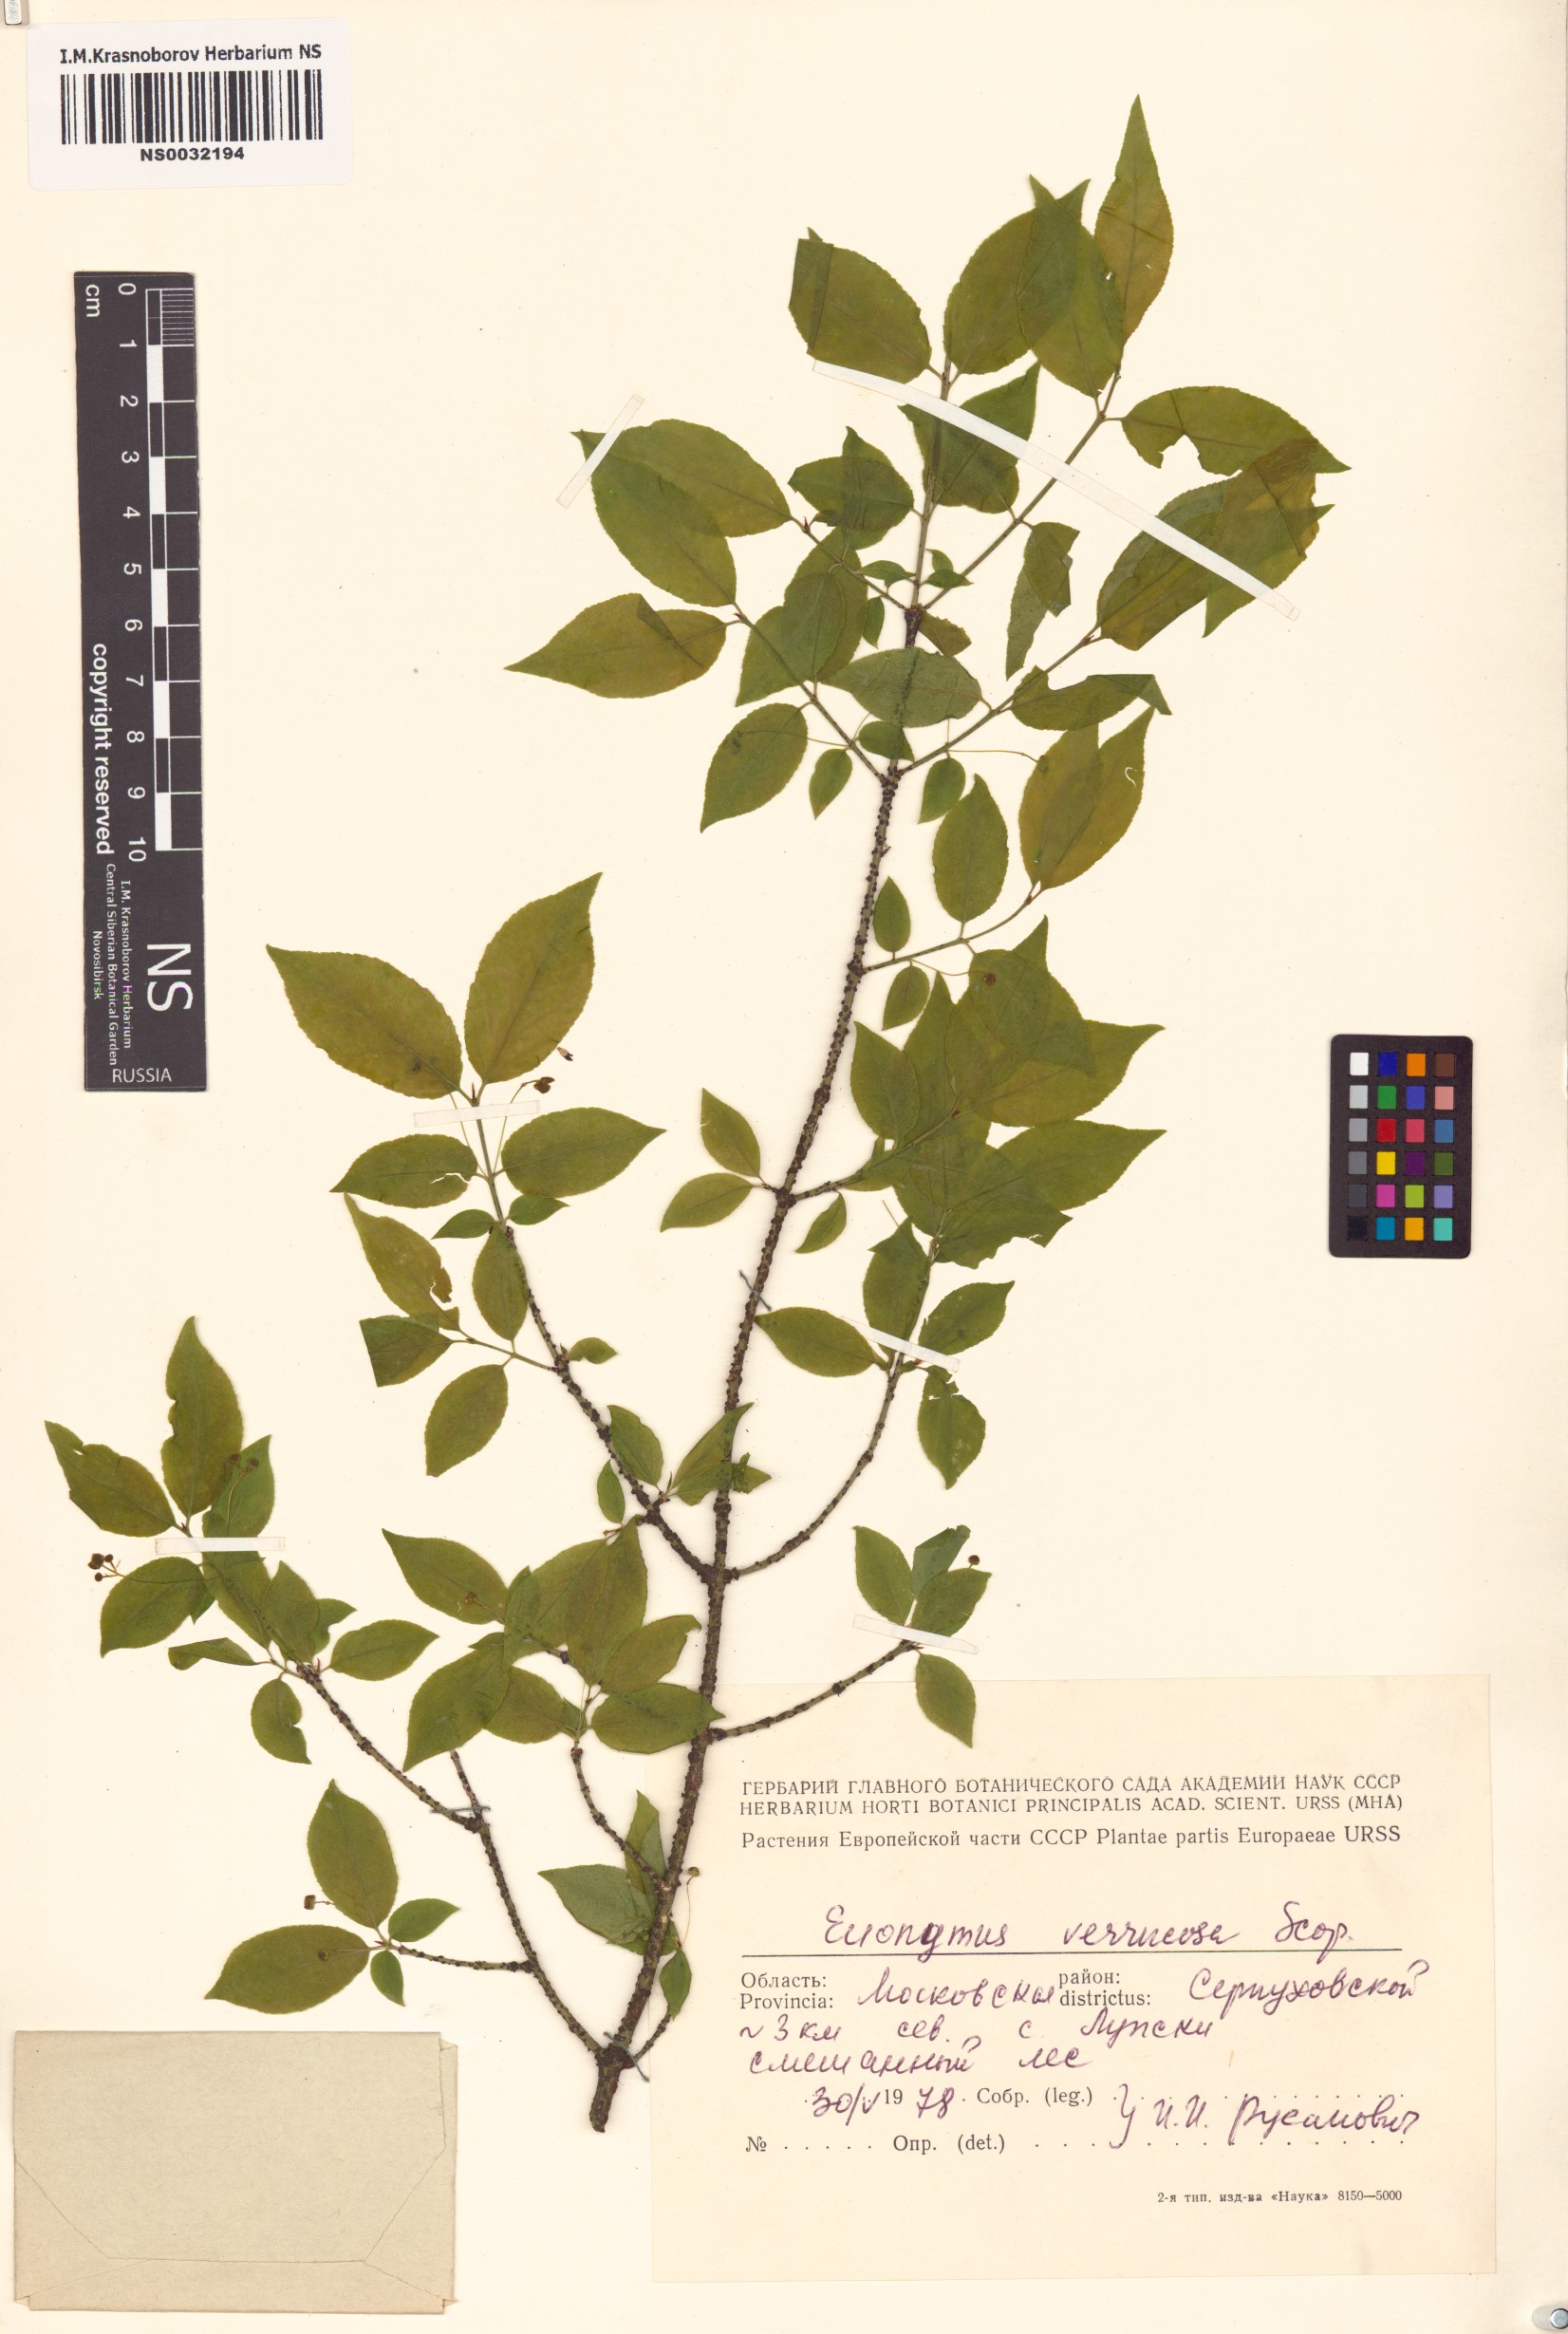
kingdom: Plantae
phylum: Tracheophyta
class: Magnoliopsida
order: Celastrales
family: Celastraceae
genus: Euonymus
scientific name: Euonymus verrucosus
